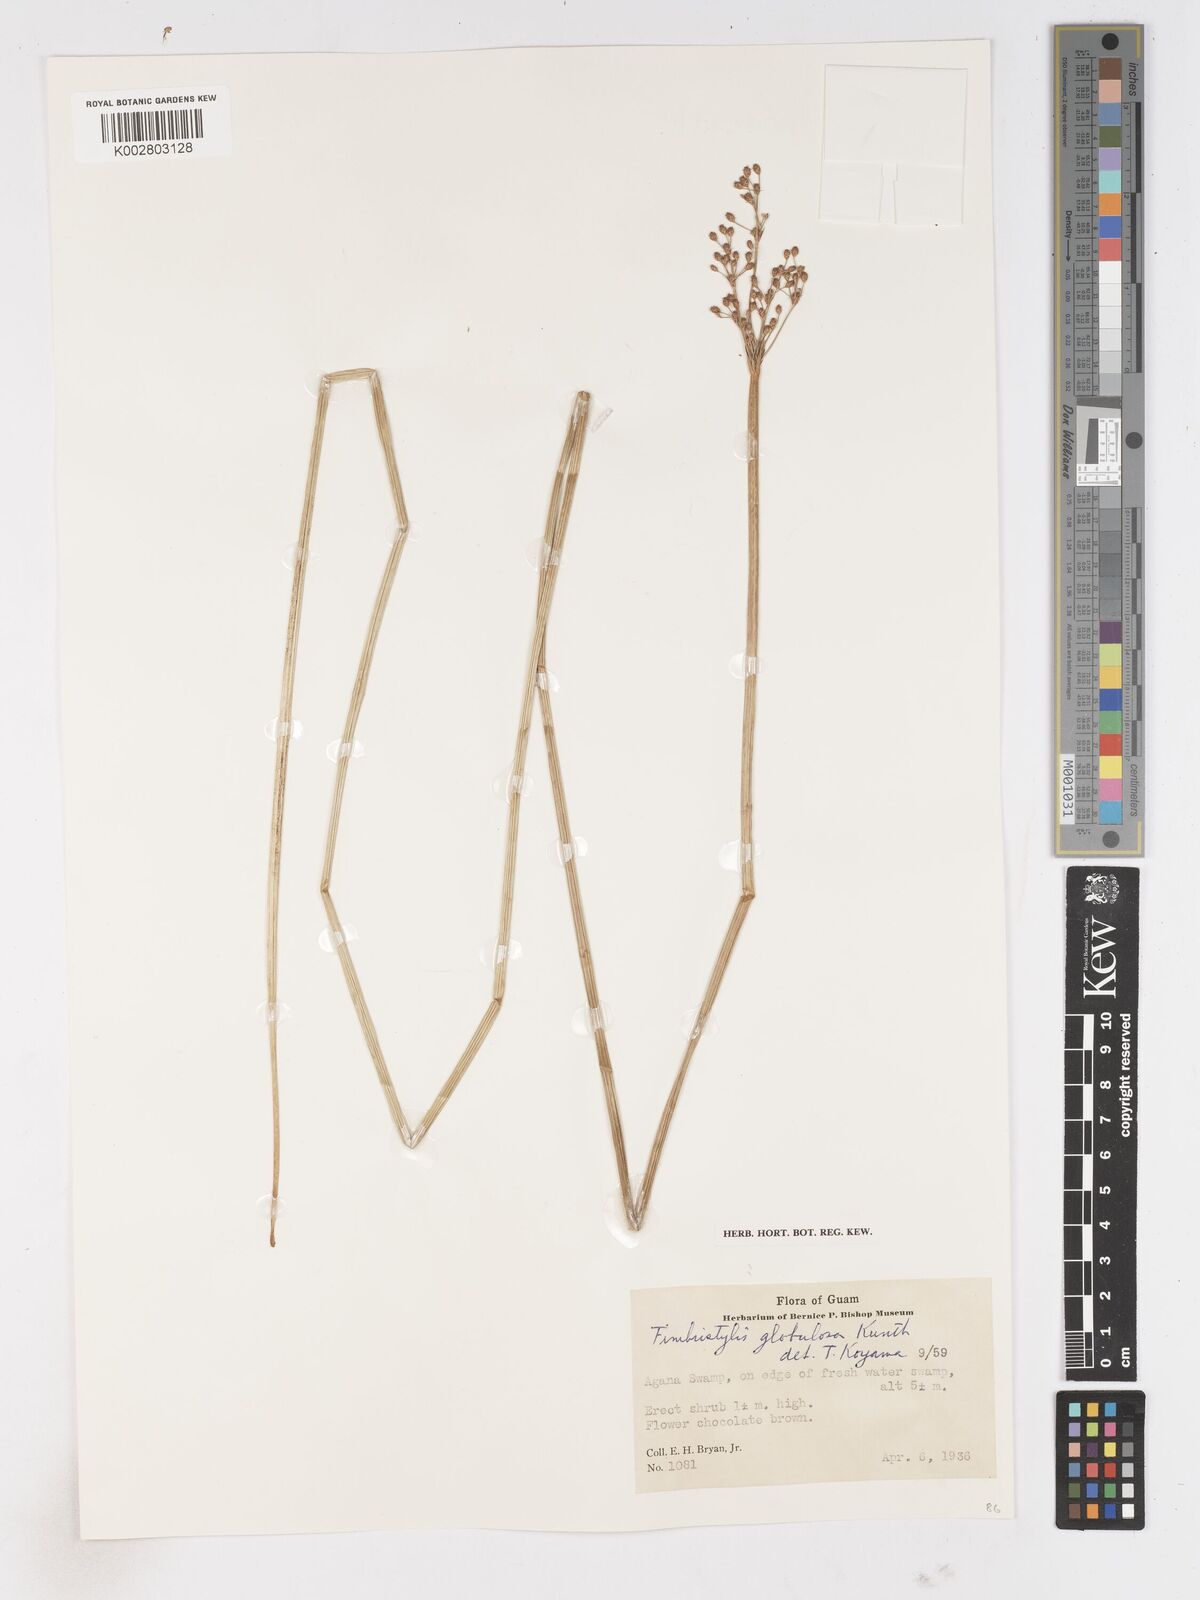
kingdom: Plantae
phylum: Tracheophyta
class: Liliopsida
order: Poales
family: Cyperaceae
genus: Fimbristylis
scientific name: Fimbristylis umbellaris
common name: Globular fimbristylis
